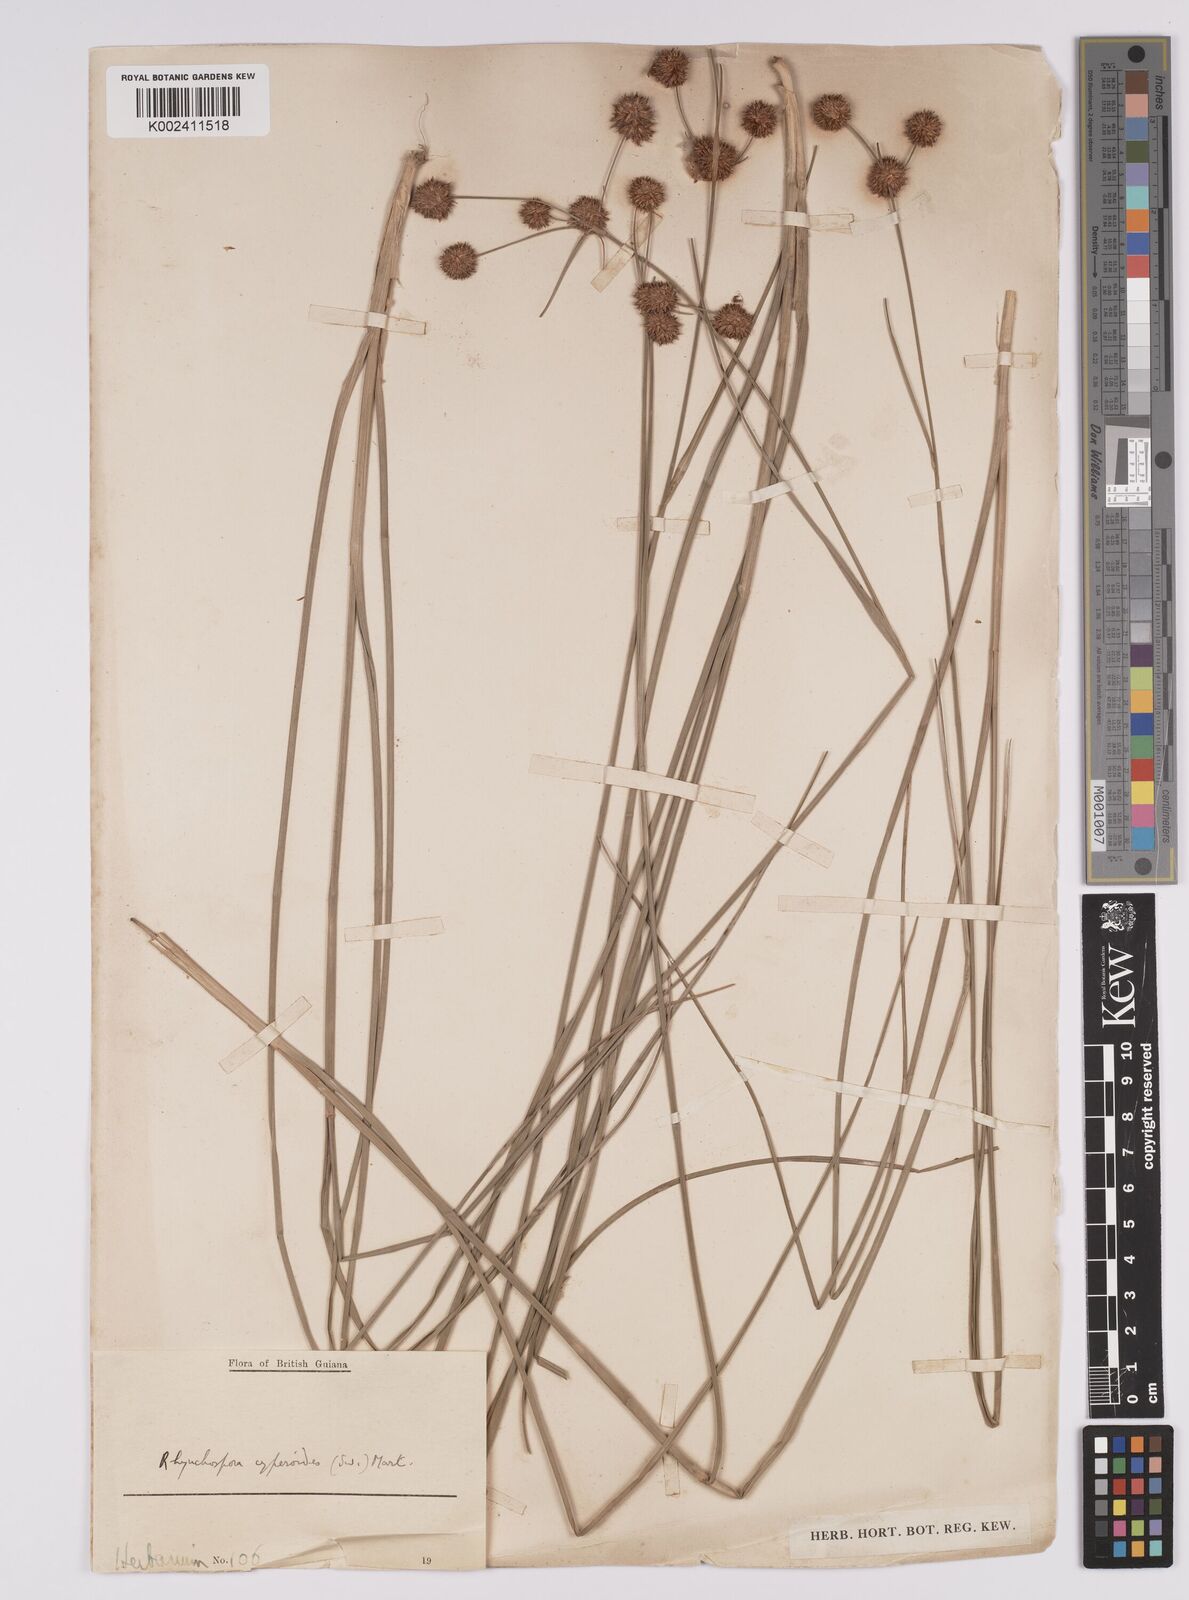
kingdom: Plantae
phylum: Tracheophyta
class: Liliopsida
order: Poales
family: Cyperaceae
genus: Rhynchospora
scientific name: Rhynchospora holoschoenoides
